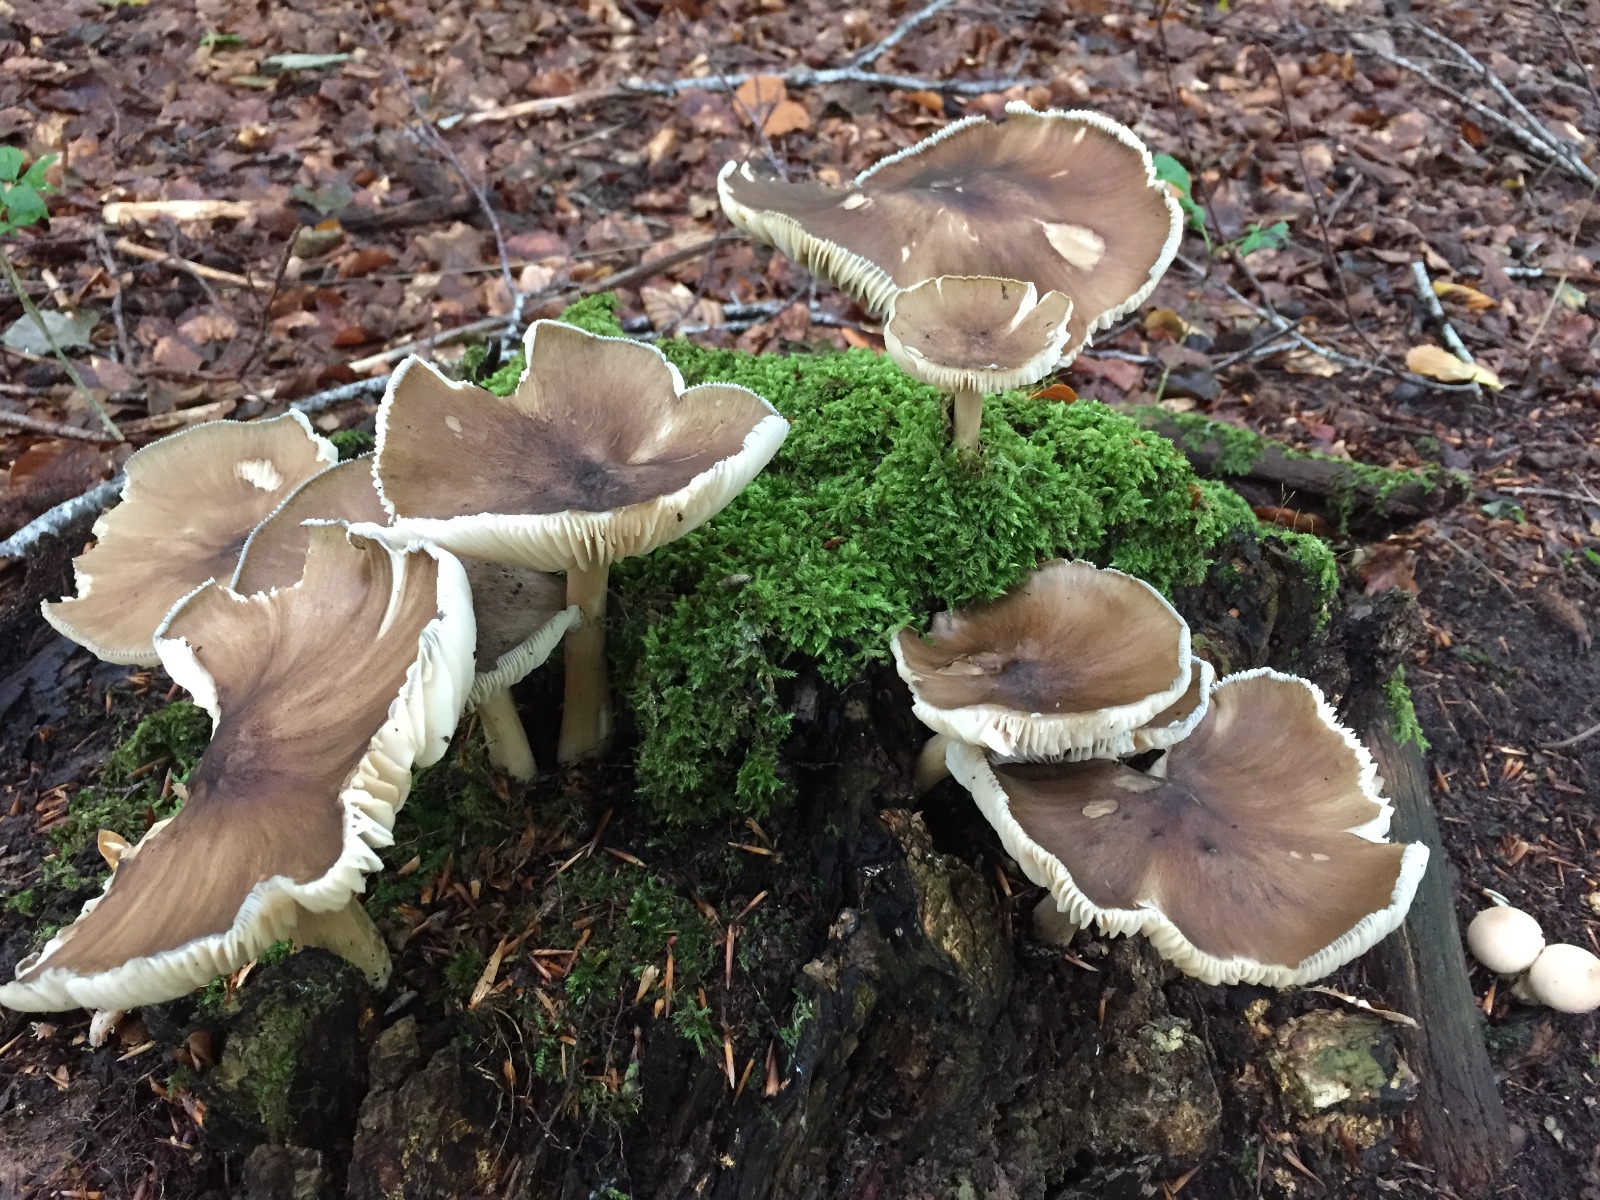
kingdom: Fungi
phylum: Basidiomycota
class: Agaricomycetes
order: Agaricales
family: Tricholomataceae
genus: Megacollybia
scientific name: Megacollybia platyphylla
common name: bredbladet væbnerhat
